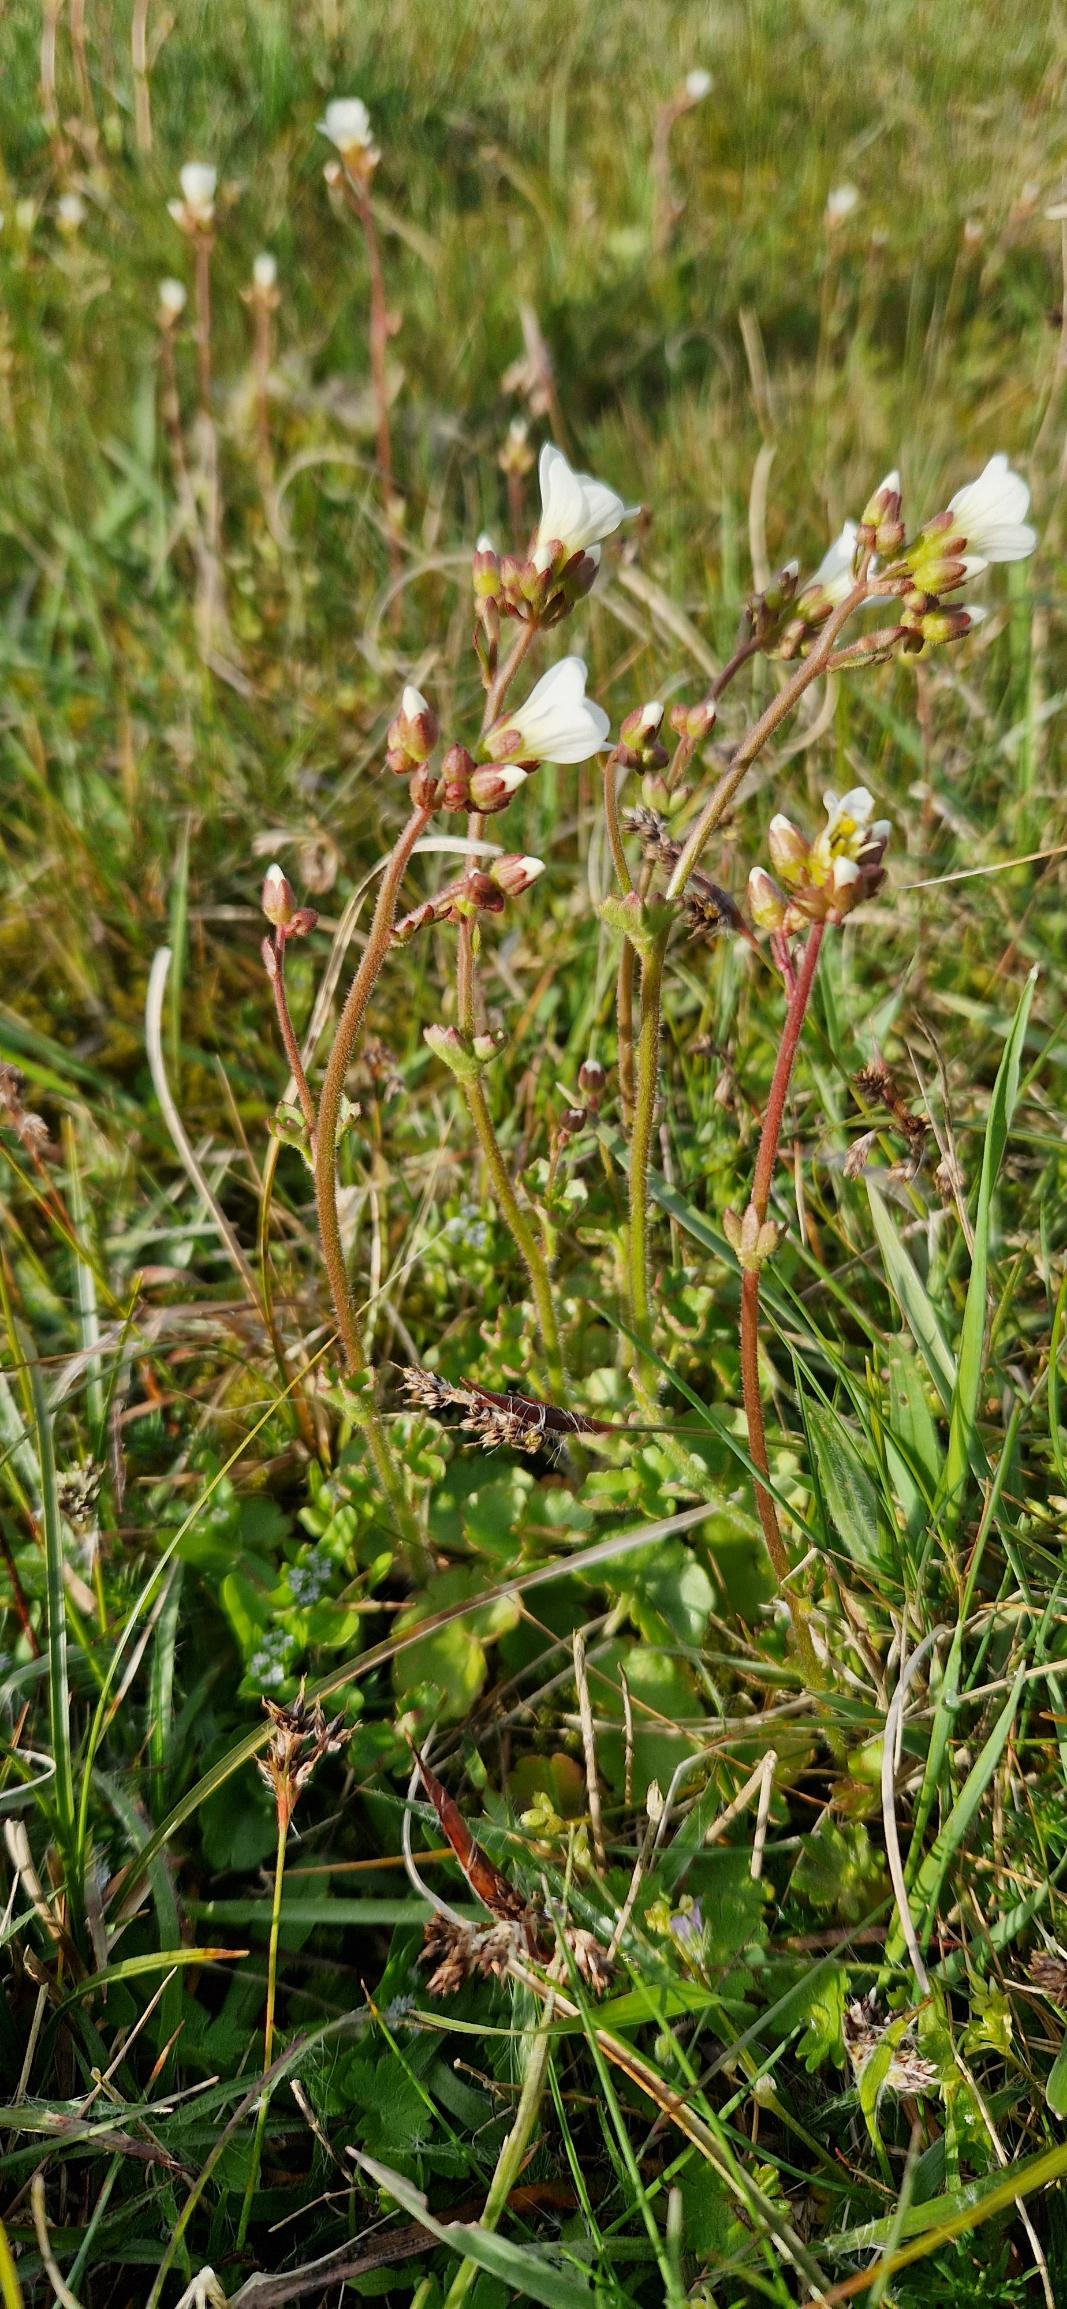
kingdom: Plantae
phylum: Tracheophyta
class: Magnoliopsida
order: Saxifragales
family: Saxifragaceae
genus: Saxifraga
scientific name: Saxifraga granulata
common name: Kornet stenbræk
